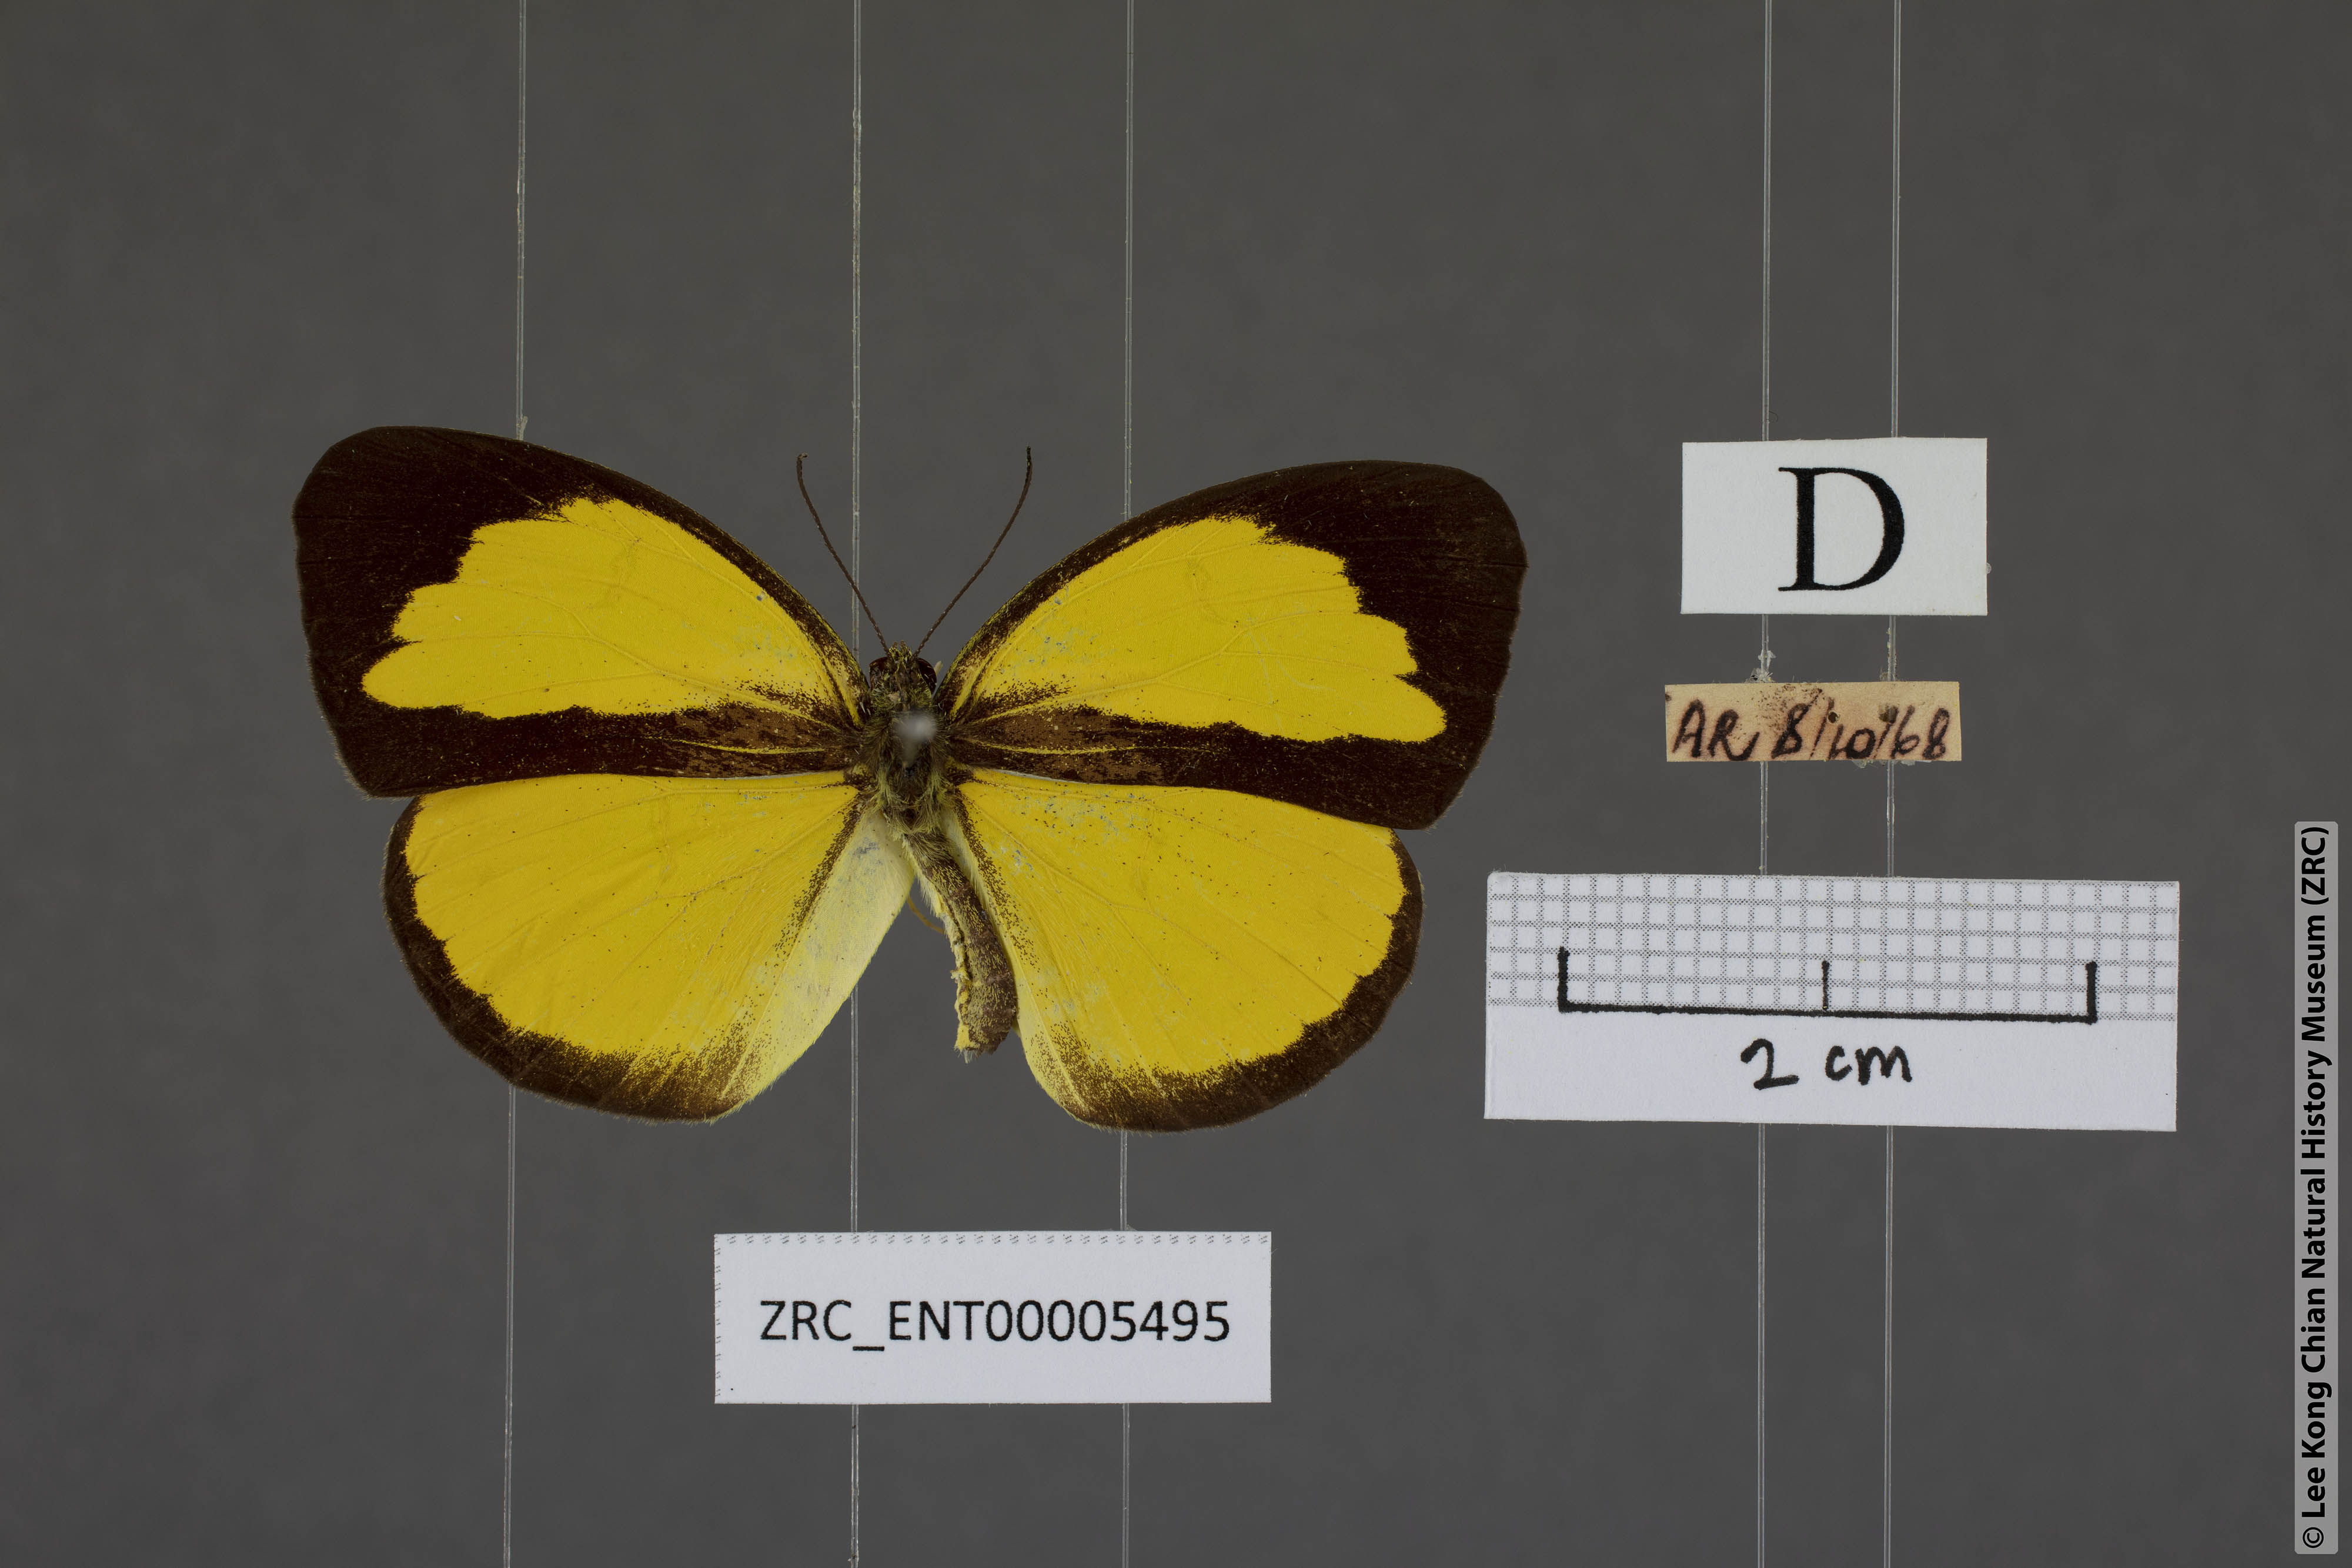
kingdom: Animalia
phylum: Arthropoda
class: Insecta
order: Lepidoptera
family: Pieridae
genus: Eurema
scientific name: Eurema nicevillei
